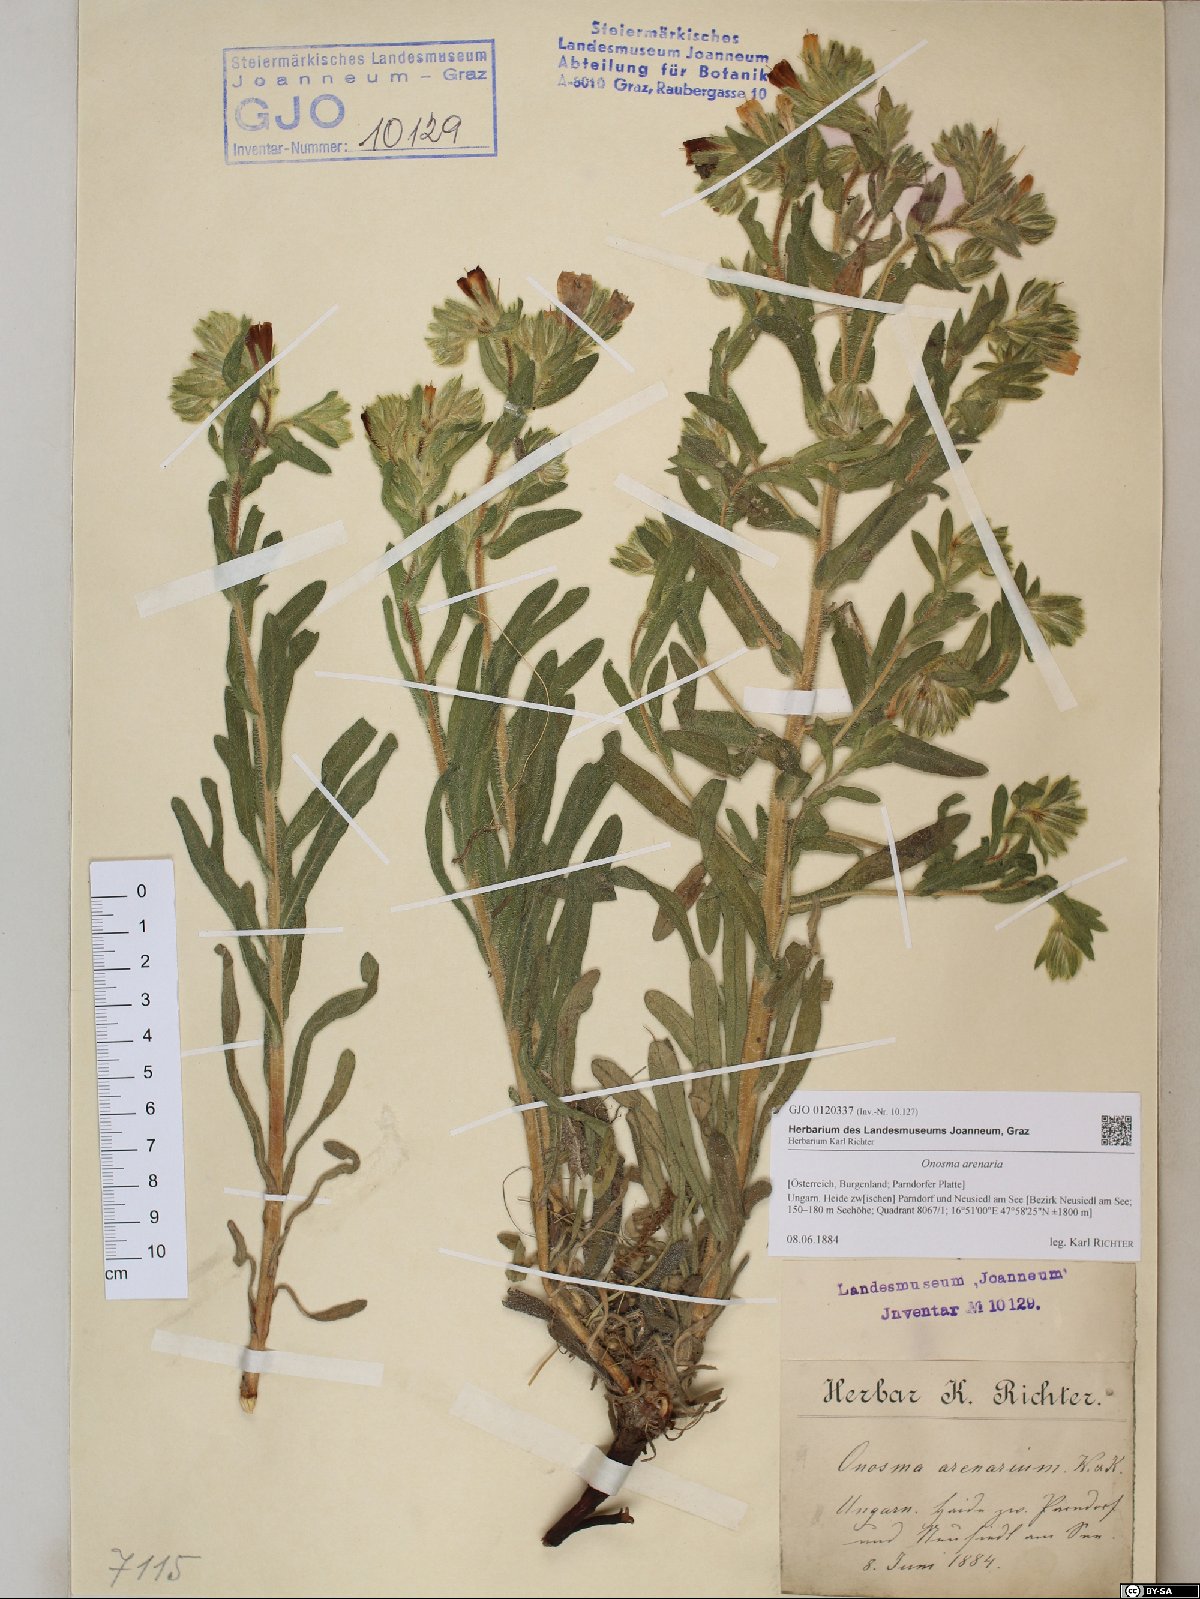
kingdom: Plantae
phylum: Tracheophyta
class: Magnoliopsida
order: Boraginales
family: Boraginaceae
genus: Onosma
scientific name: Onosma arenaria
